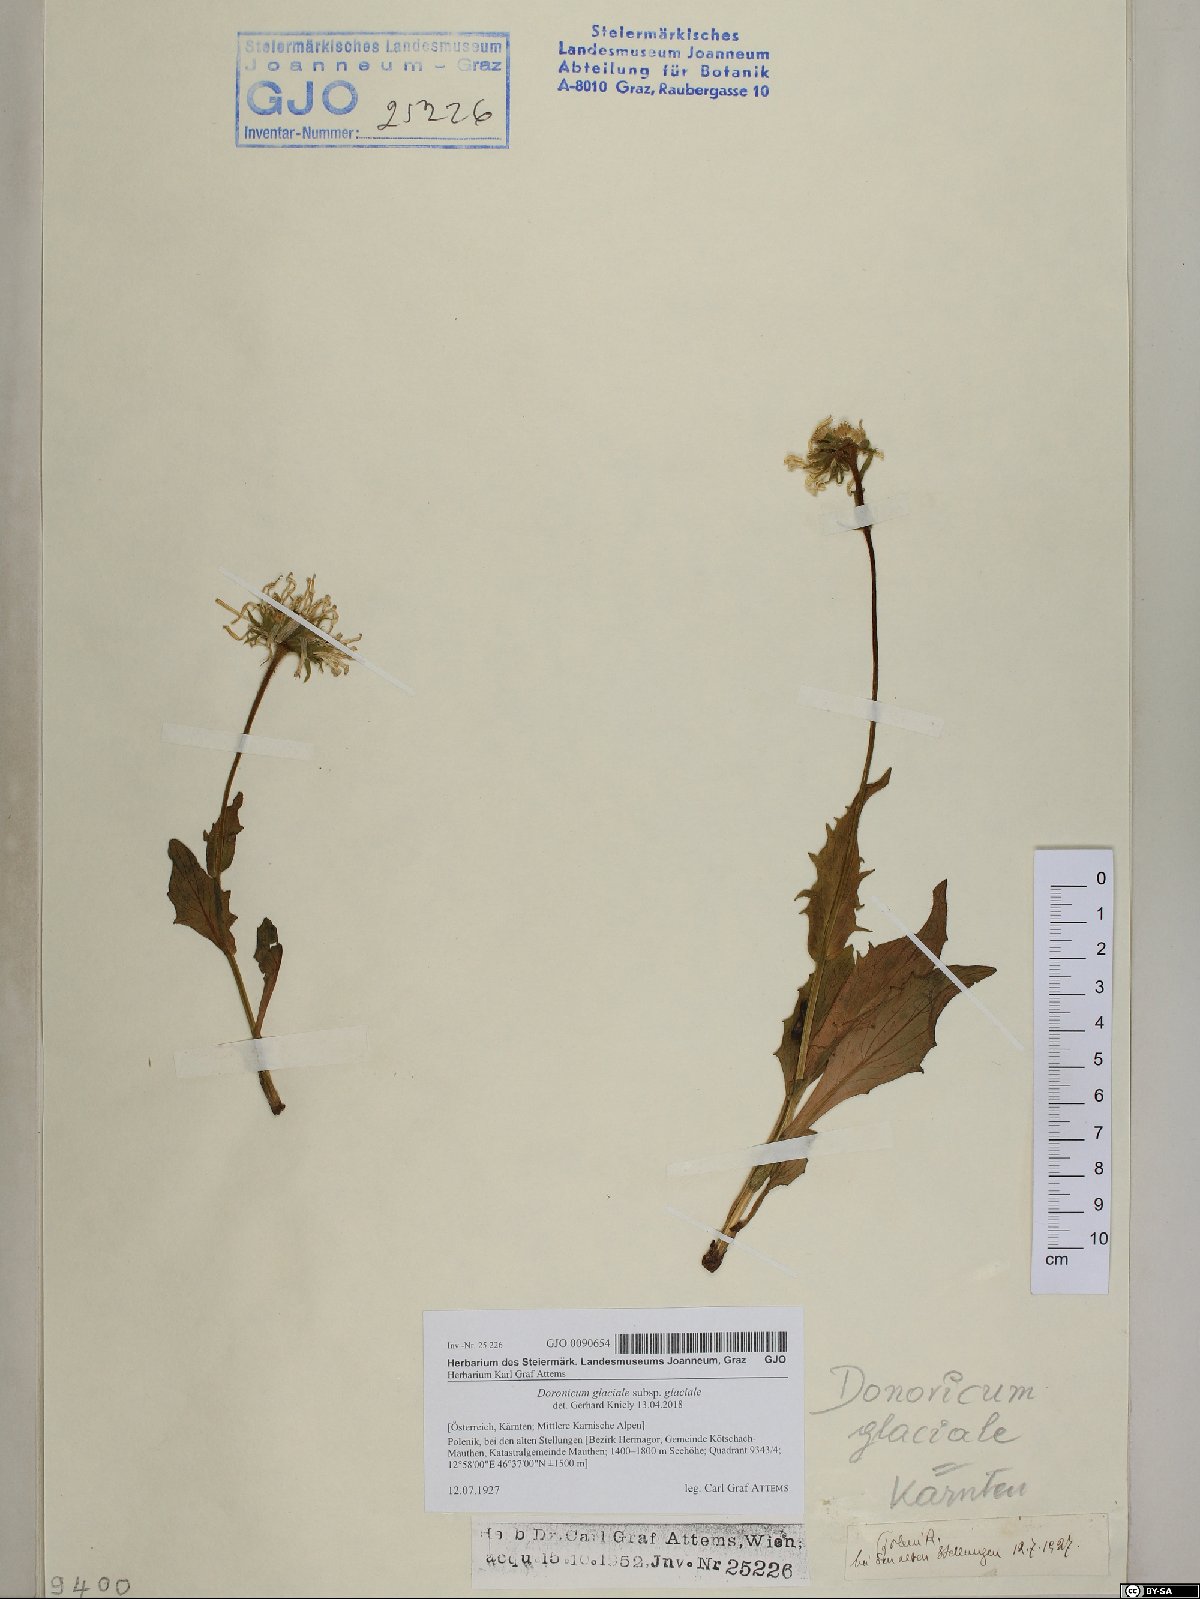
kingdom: Plantae
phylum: Tracheophyta
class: Magnoliopsida
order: Asterales
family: Asteraceae
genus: Doronicum
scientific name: Doronicum glaciale
